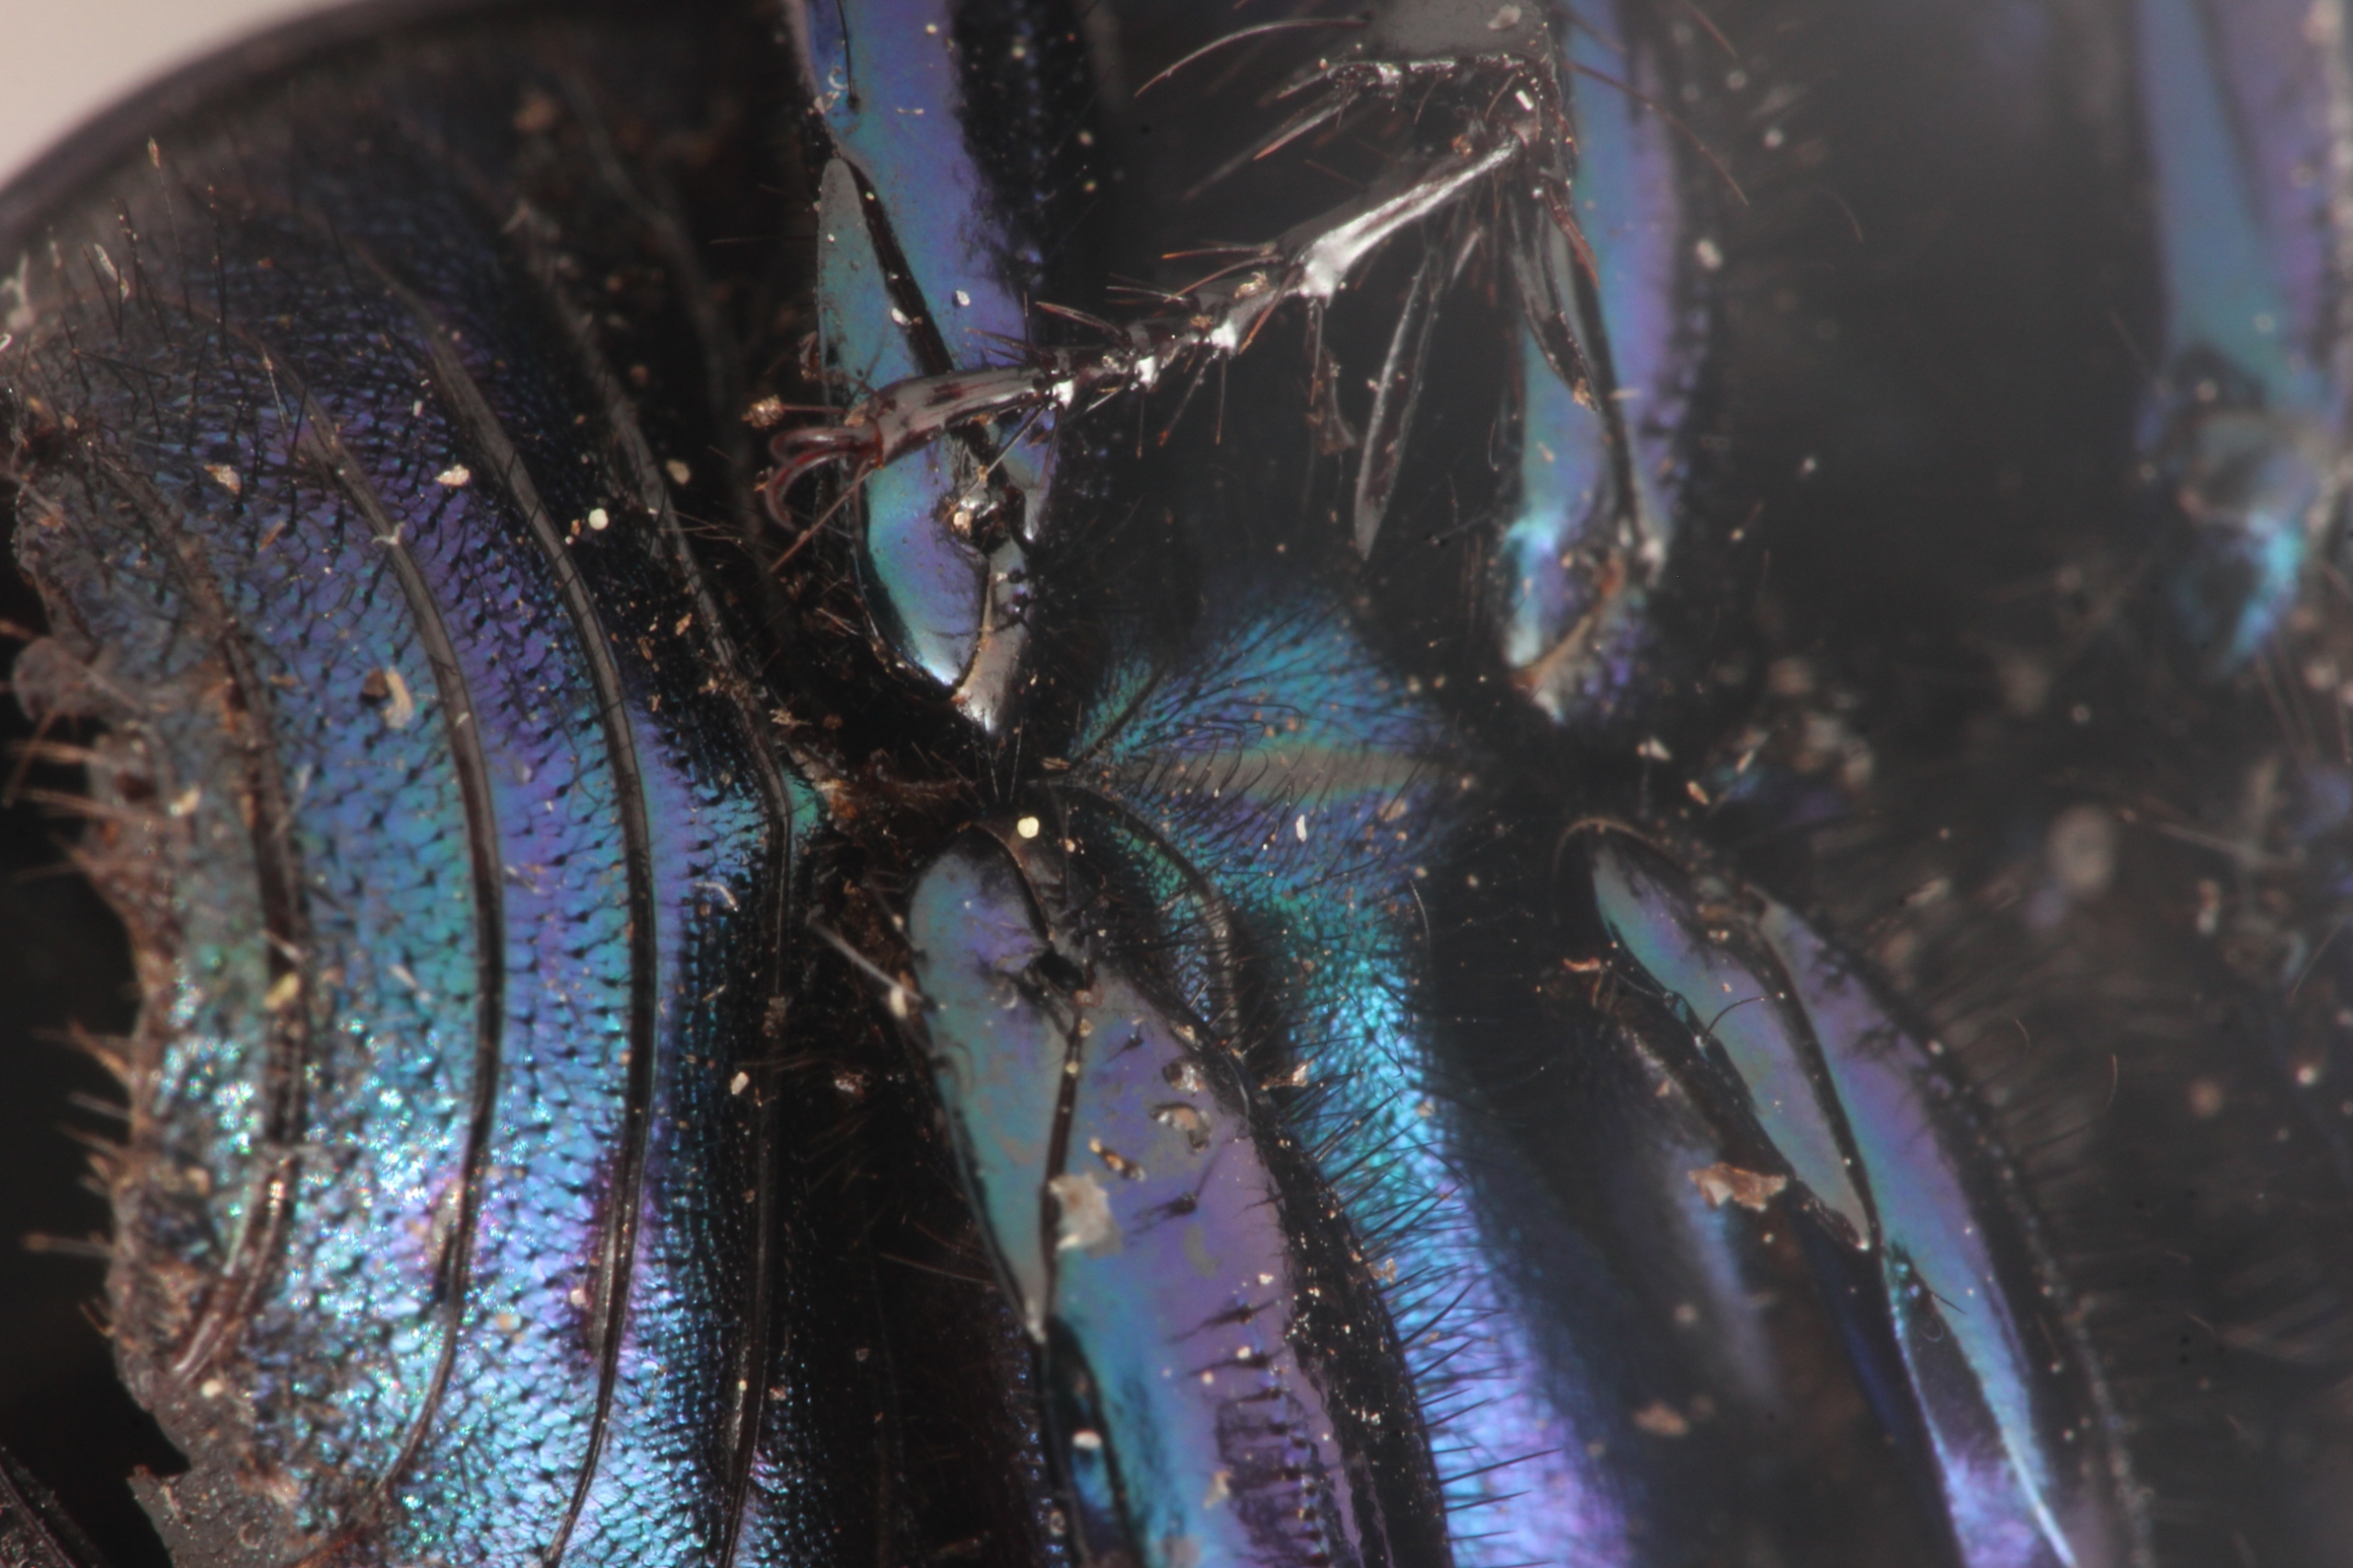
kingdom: Animalia
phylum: Arthropoda
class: Insecta
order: Coleoptera
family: Geotrupidae
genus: Anoplotrupes
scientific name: Anoplotrupes stercorosus
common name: Skovskarnbasse
